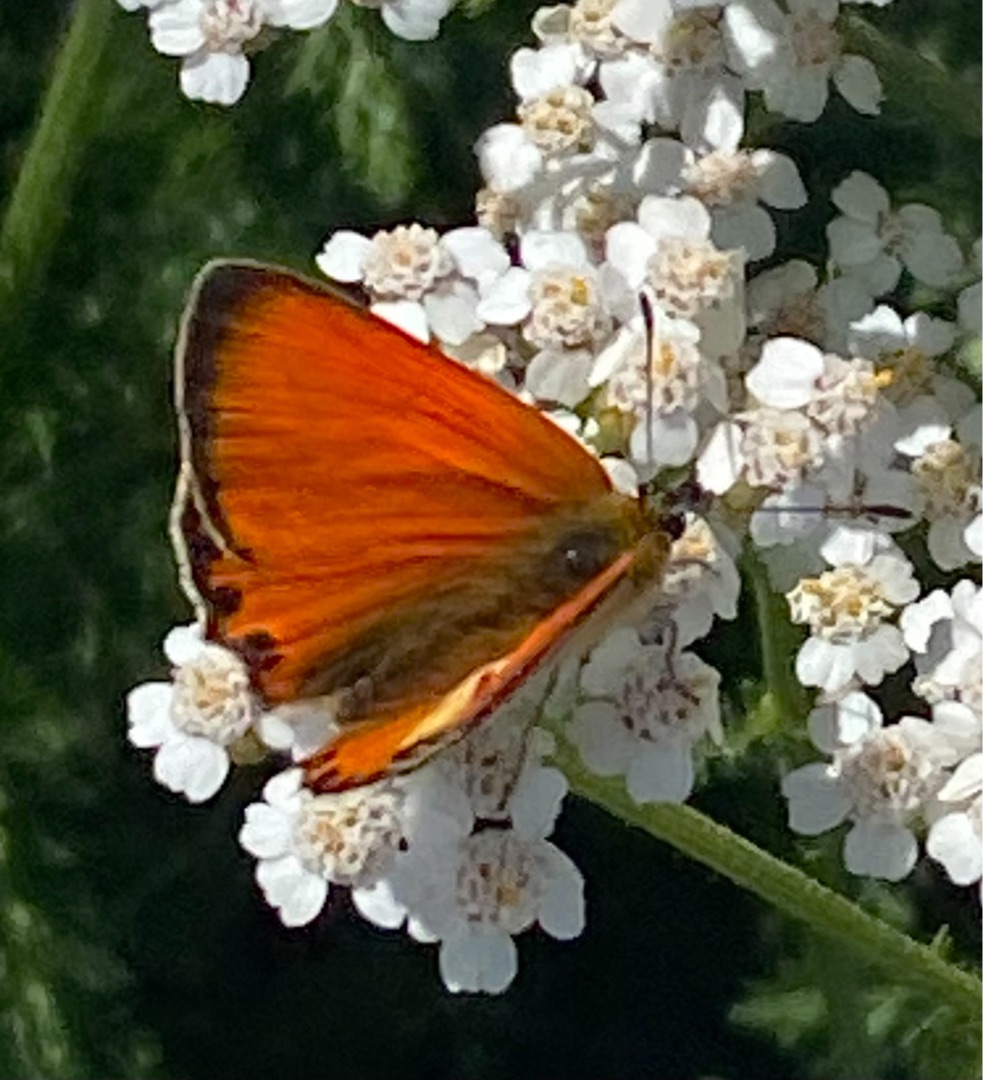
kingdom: Animalia
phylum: Arthropoda
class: Insecta
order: Lepidoptera
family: Lycaenidae
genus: Lycaena
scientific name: Lycaena virgaureae
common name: Dukatsommerfugl
